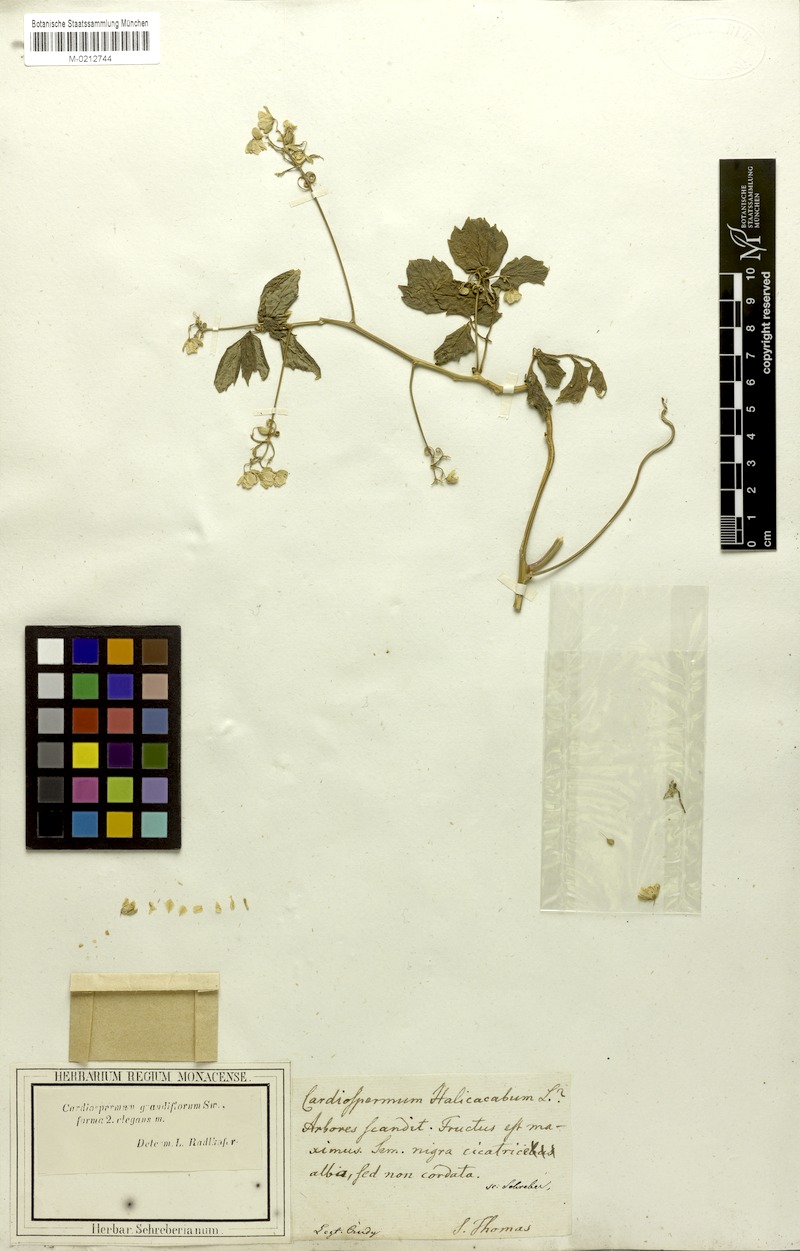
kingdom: Plantae
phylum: Tracheophyta
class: Magnoliopsida
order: Sapindales
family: Sapindaceae
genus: Cardiospermum
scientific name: Cardiospermum grandiflorum
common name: Balloon vine
